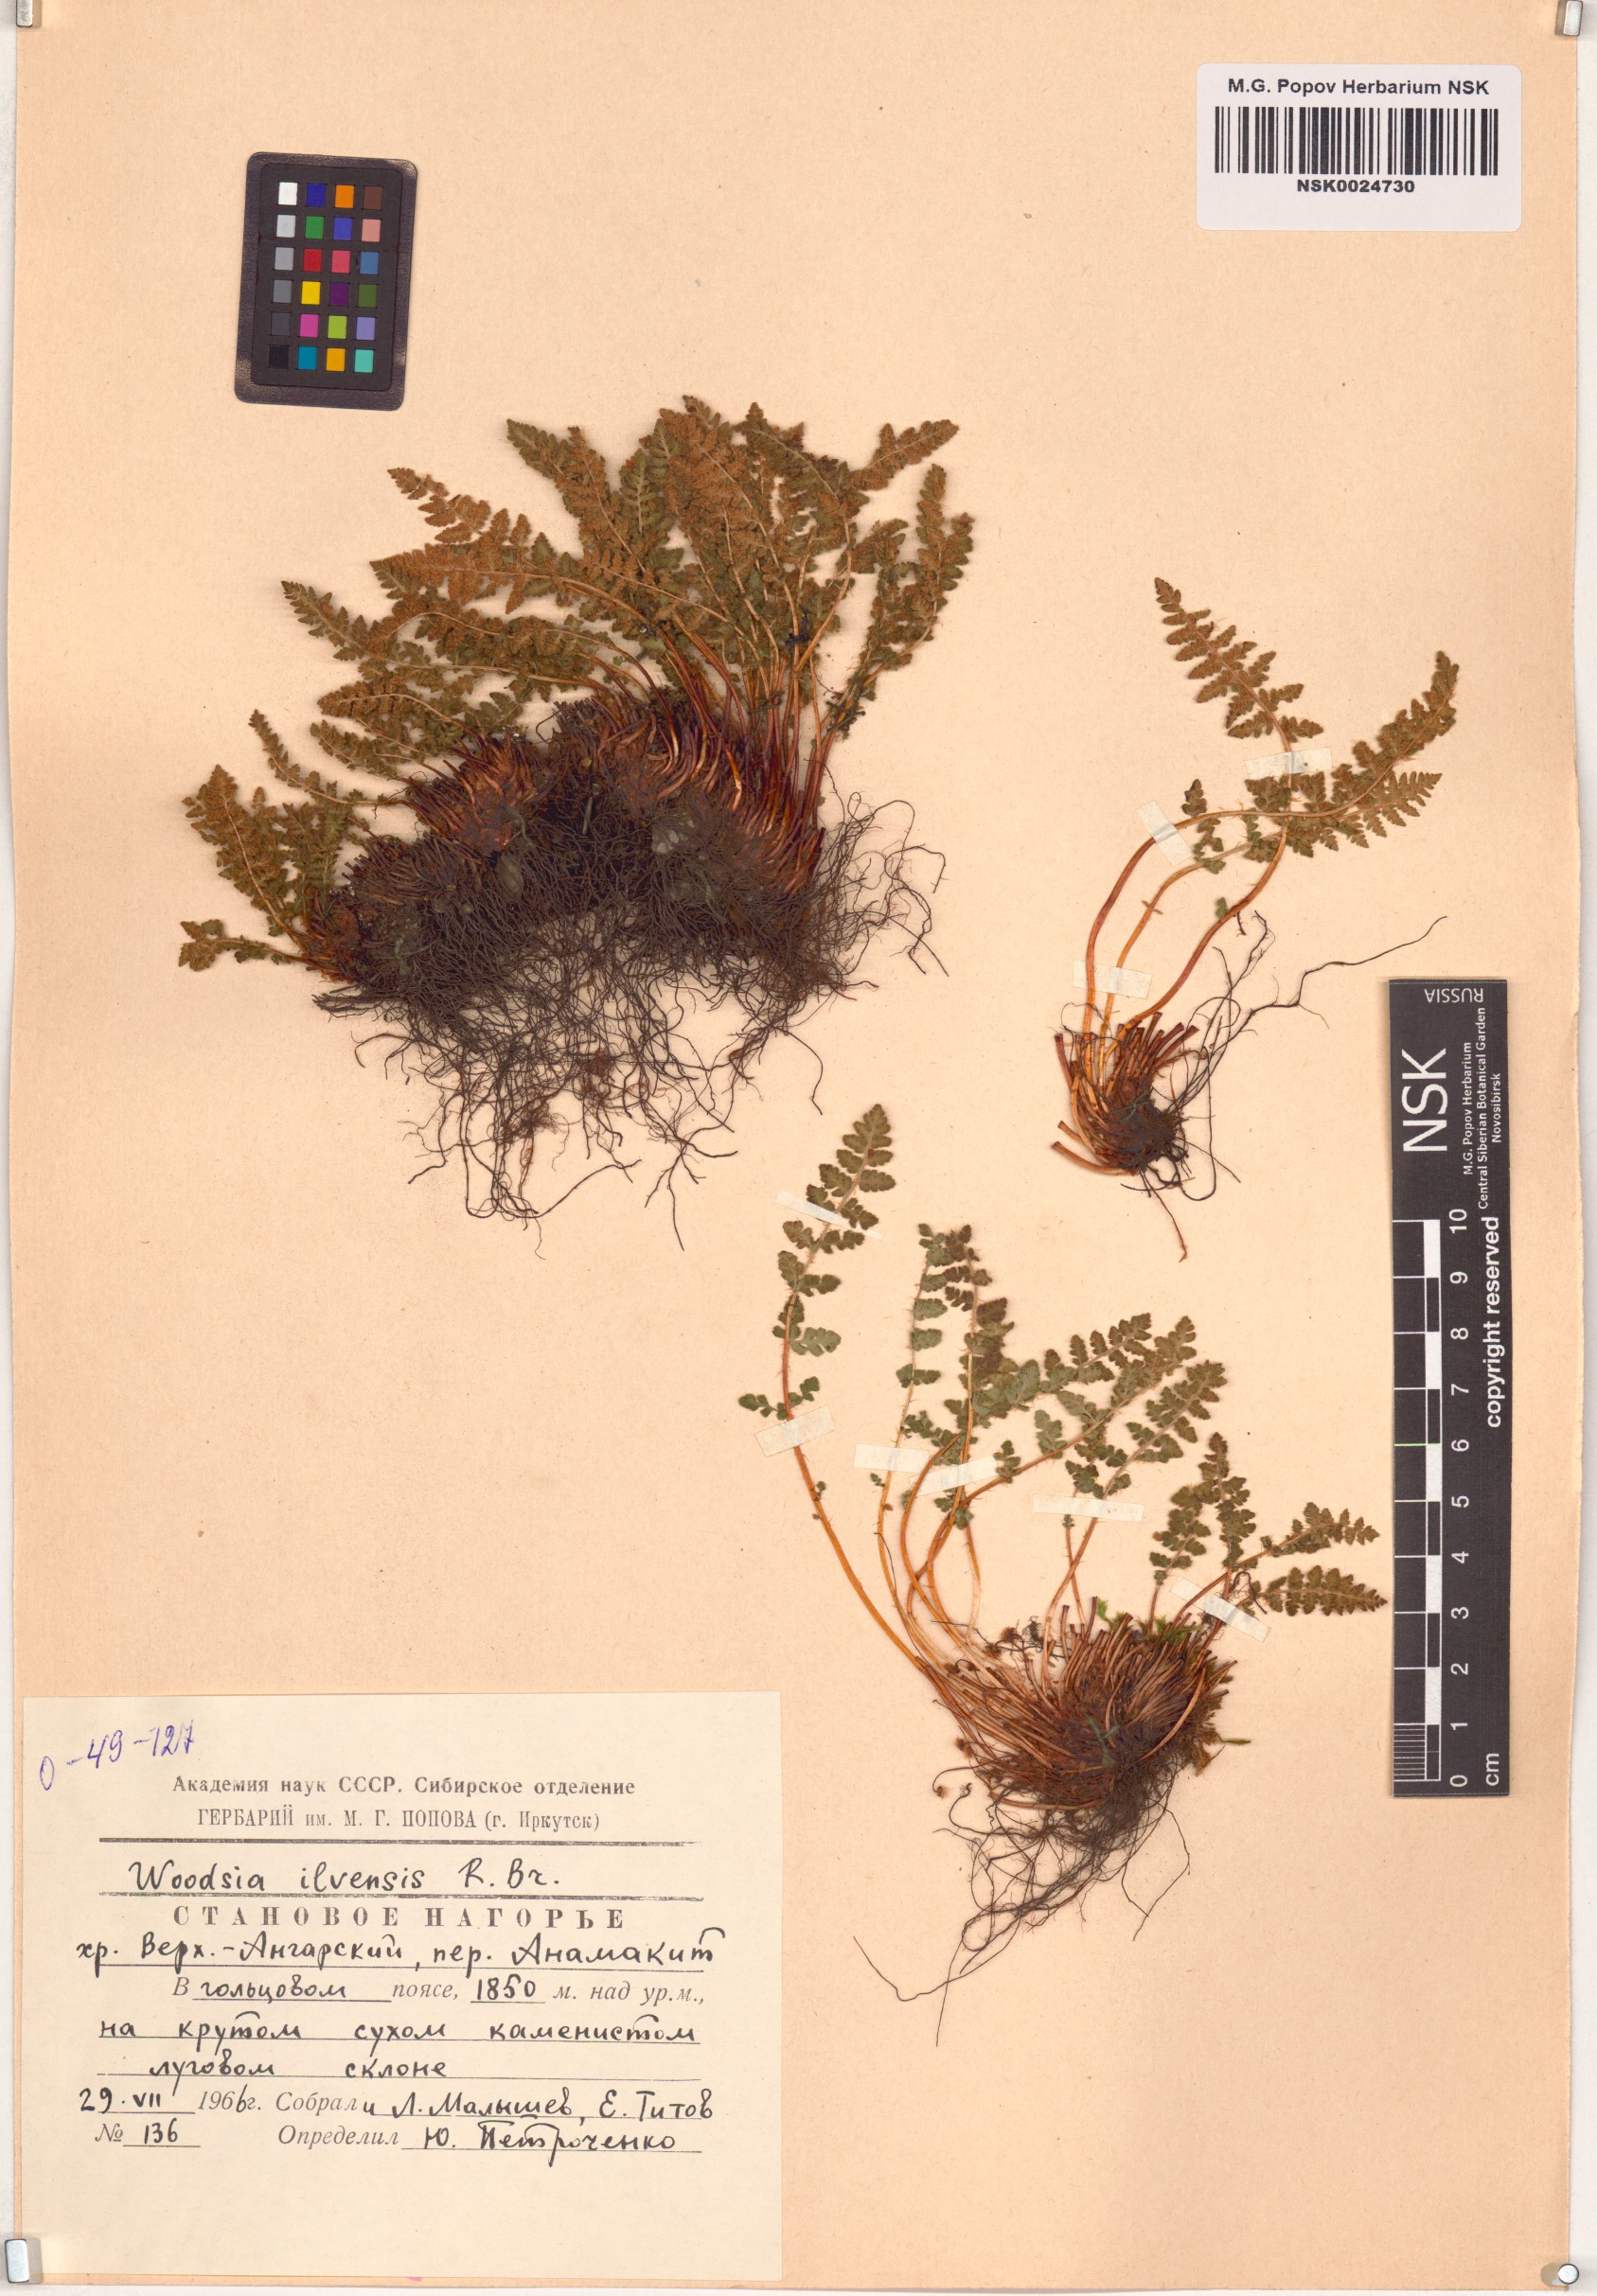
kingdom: Plantae
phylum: Tracheophyta
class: Polypodiopsida
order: Polypodiales
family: Woodsiaceae
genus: Woodsia
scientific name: Woodsia ilvensis
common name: Fragrant woodsia
